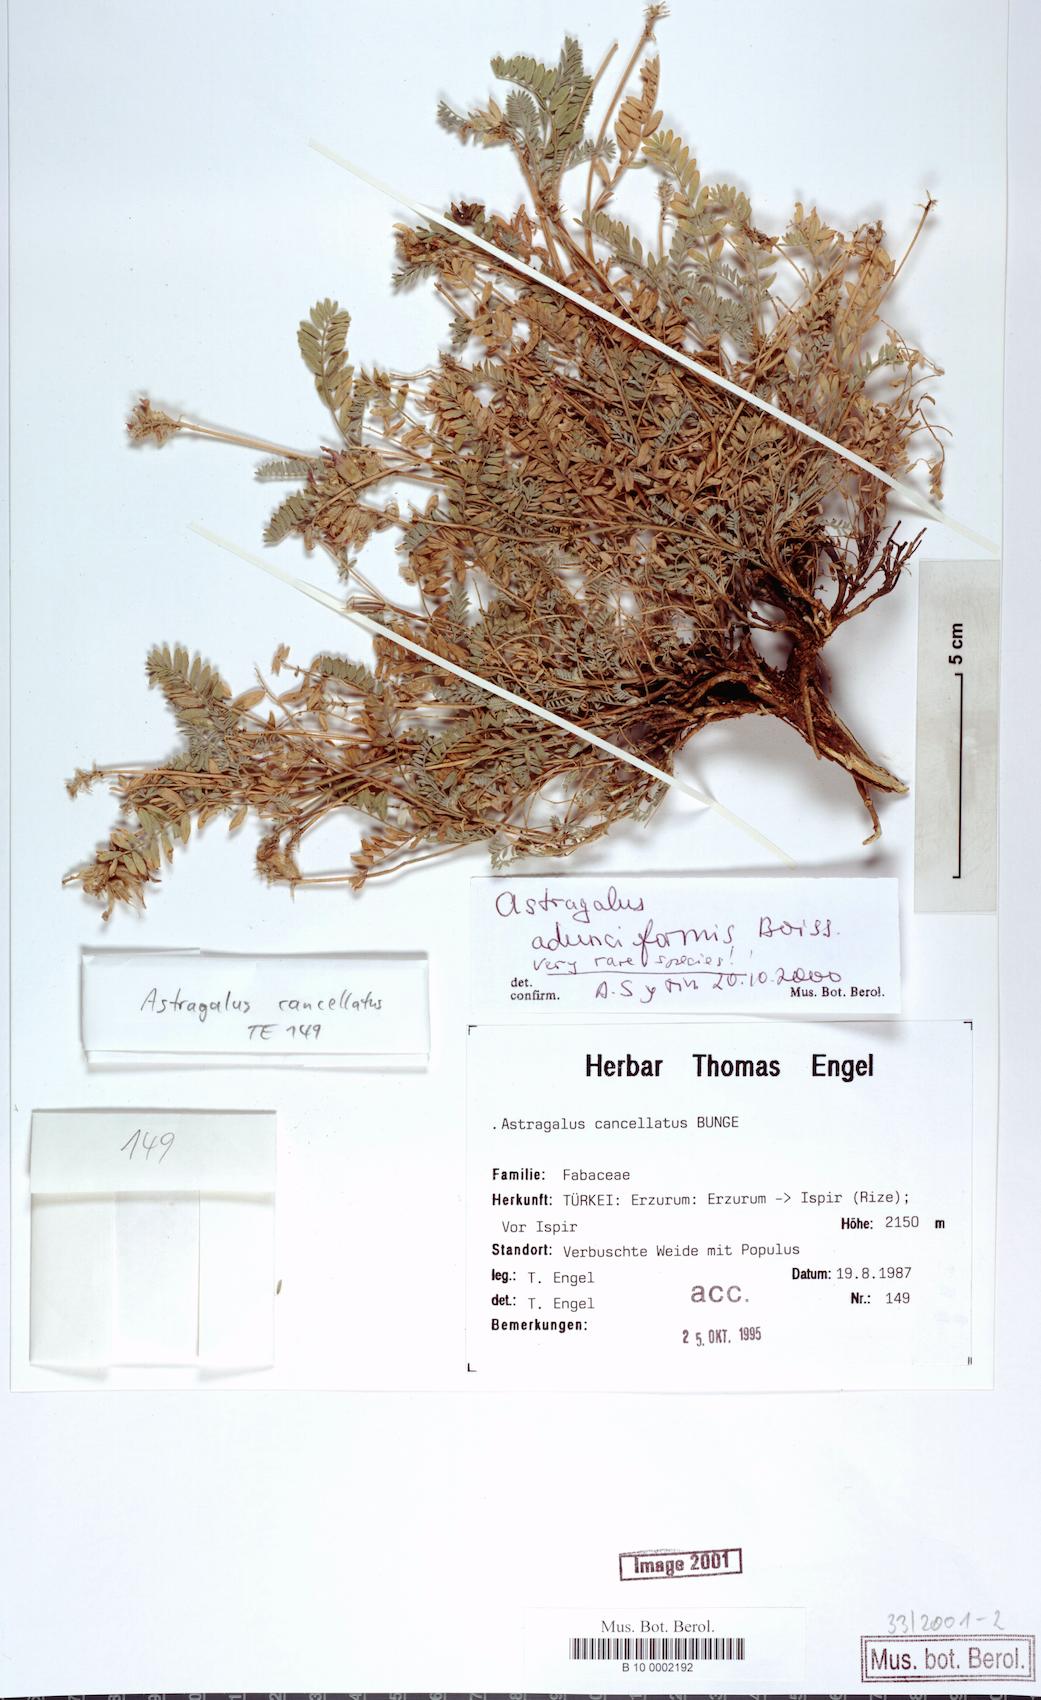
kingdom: Plantae
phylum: Tracheophyta
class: Magnoliopsida
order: Fabales
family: Fabaceae
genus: Astragalus
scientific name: Astragalus cancellatus
